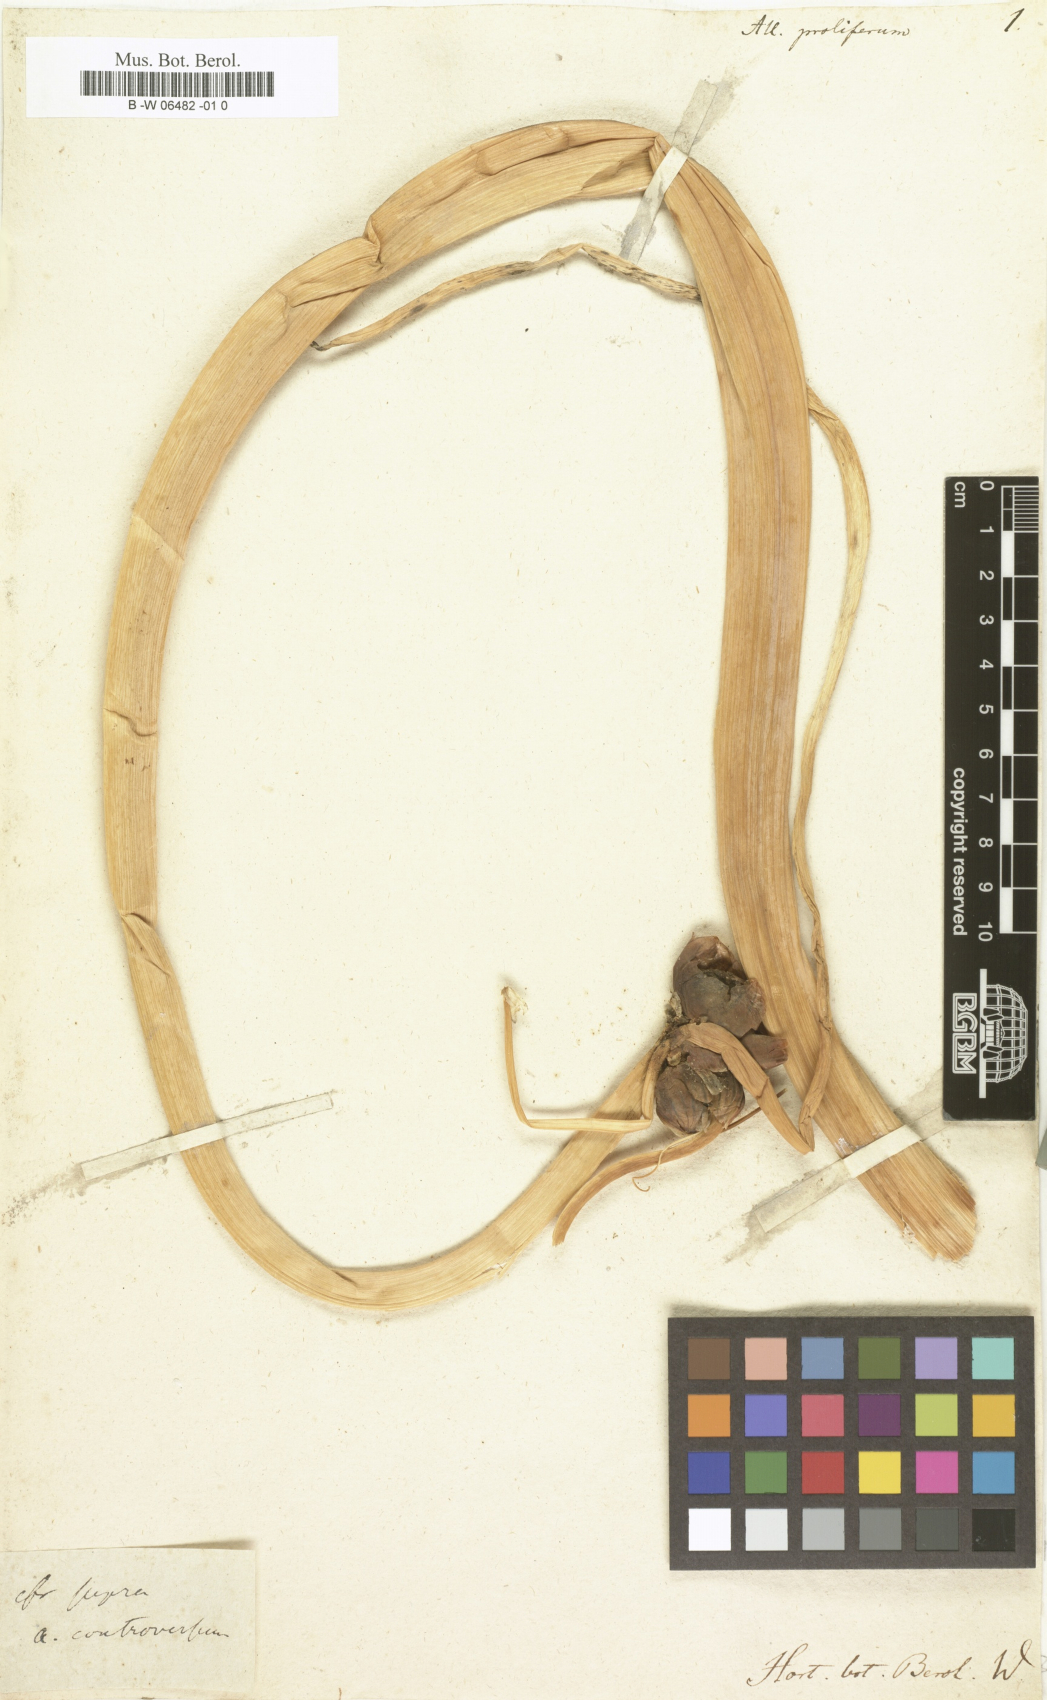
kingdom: Plantae
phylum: Tracheophyta
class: Liliopsida
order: Asparagales
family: Amaryllidaceae
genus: Allium
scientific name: Allium proliferum
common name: Beltsville bunching onion
